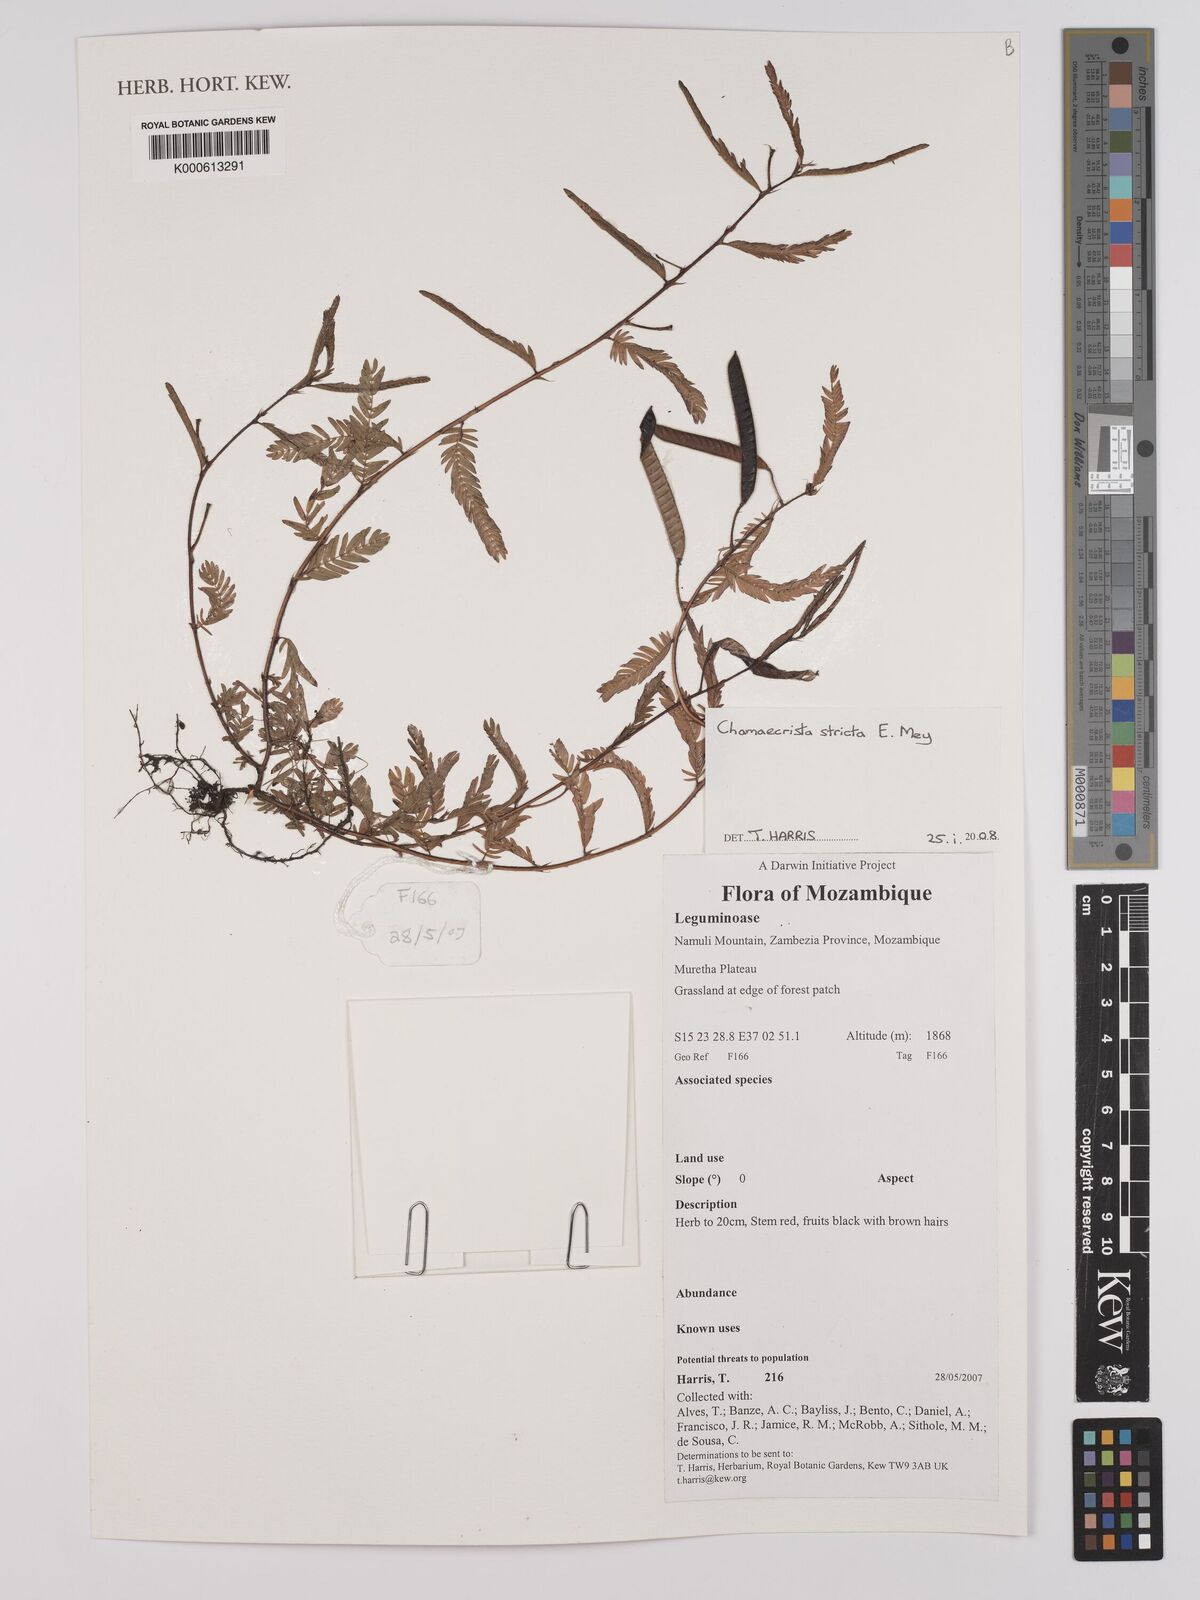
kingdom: Plantae
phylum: Tracheophyta
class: Magnoliopsida
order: Fabales
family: Fabaceae
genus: Chamaecrista
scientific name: Chamaecrista stricta
